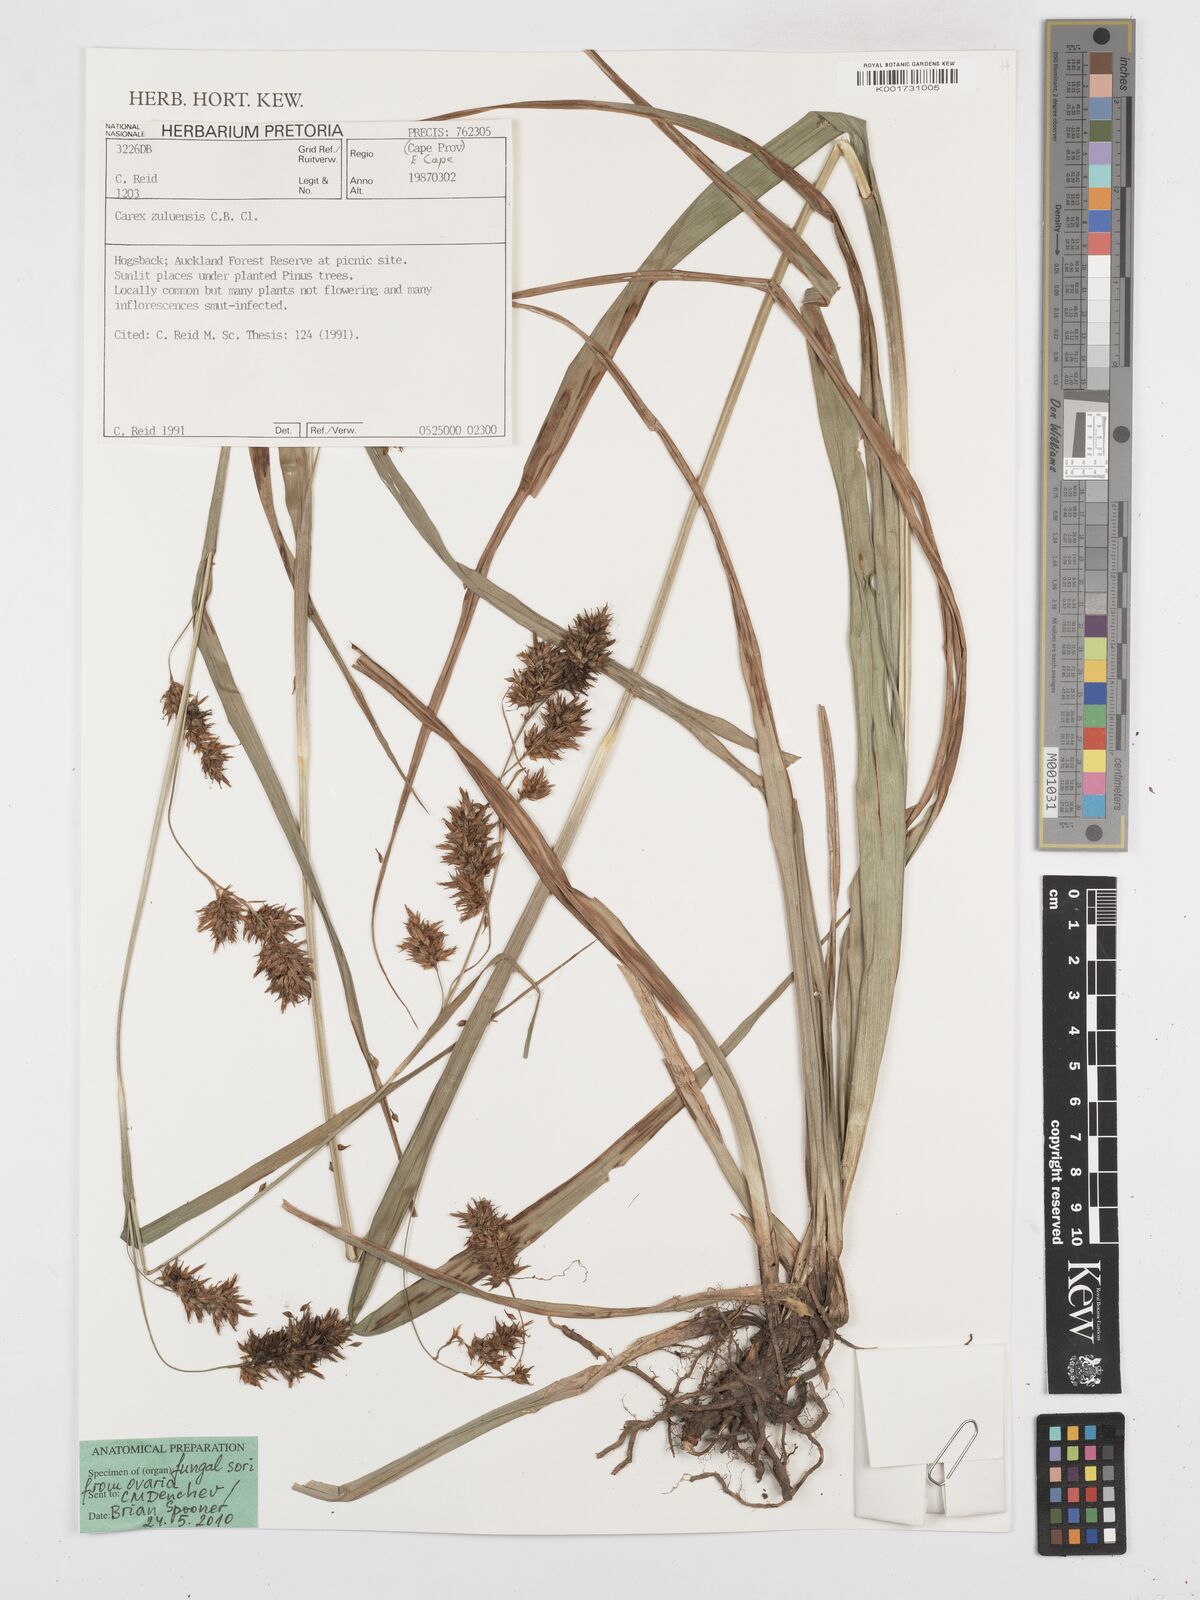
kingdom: Plantae
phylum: Tracheophyta
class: Liliopsida
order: Poales
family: Cyperaceae
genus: Carex
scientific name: Carex steudneri
